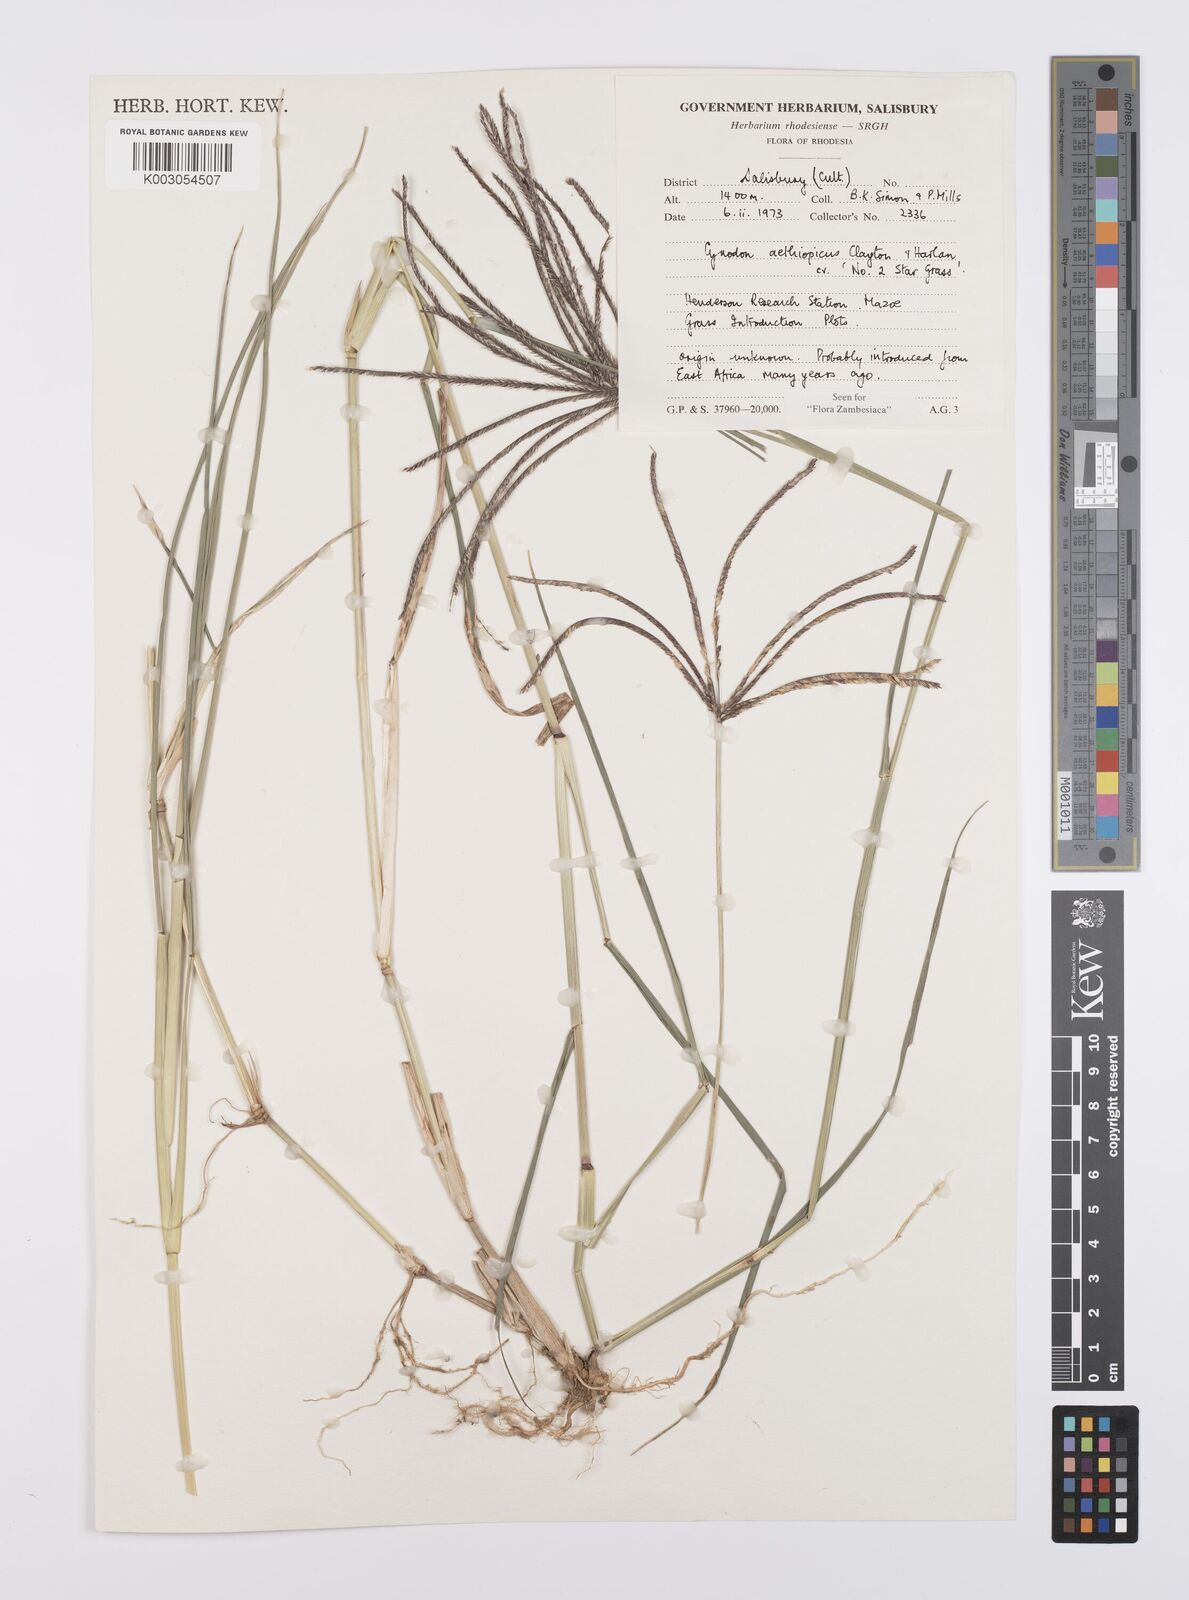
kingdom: Plantae
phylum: Tracheophyta
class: Liliopsida
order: Poales
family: Poaceae
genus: Cynodon
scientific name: Cynodon aethiopicus
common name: Ethiopian dogstooth grass
